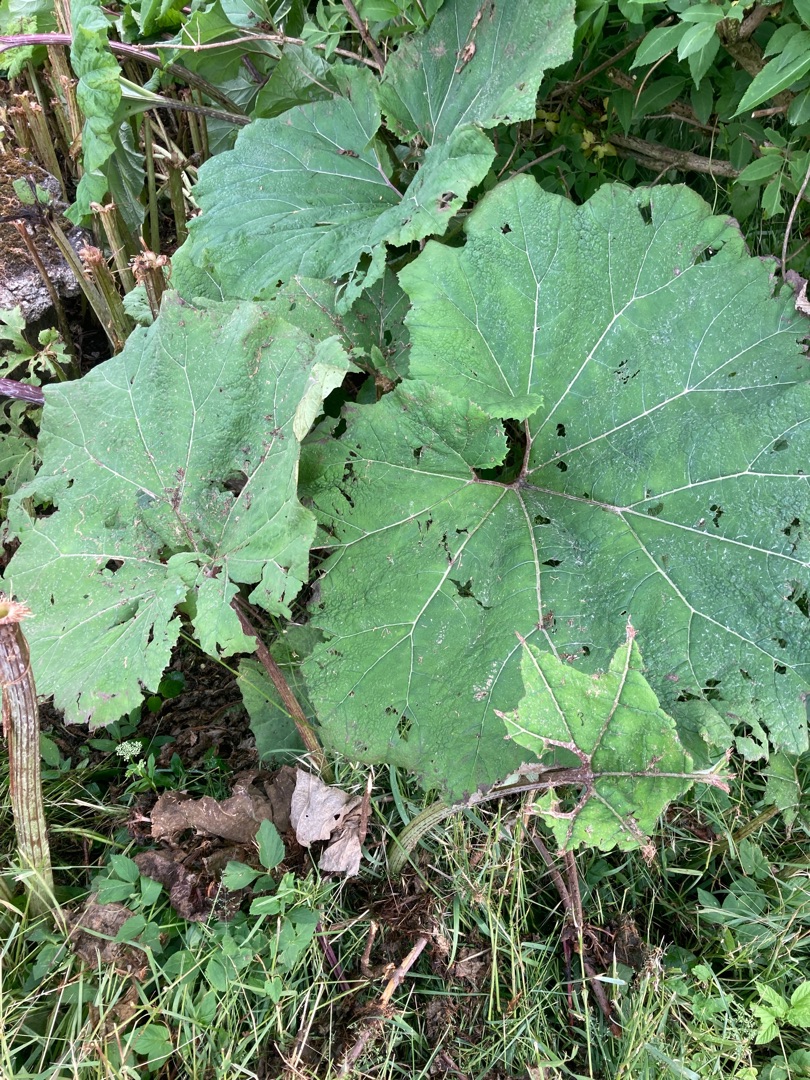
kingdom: Plantae
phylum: Tracheophyta
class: Magnoliopsida
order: Asterales
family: Asteraceae
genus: Petasites
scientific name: Petasites hybridus
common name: Rød hestehov
